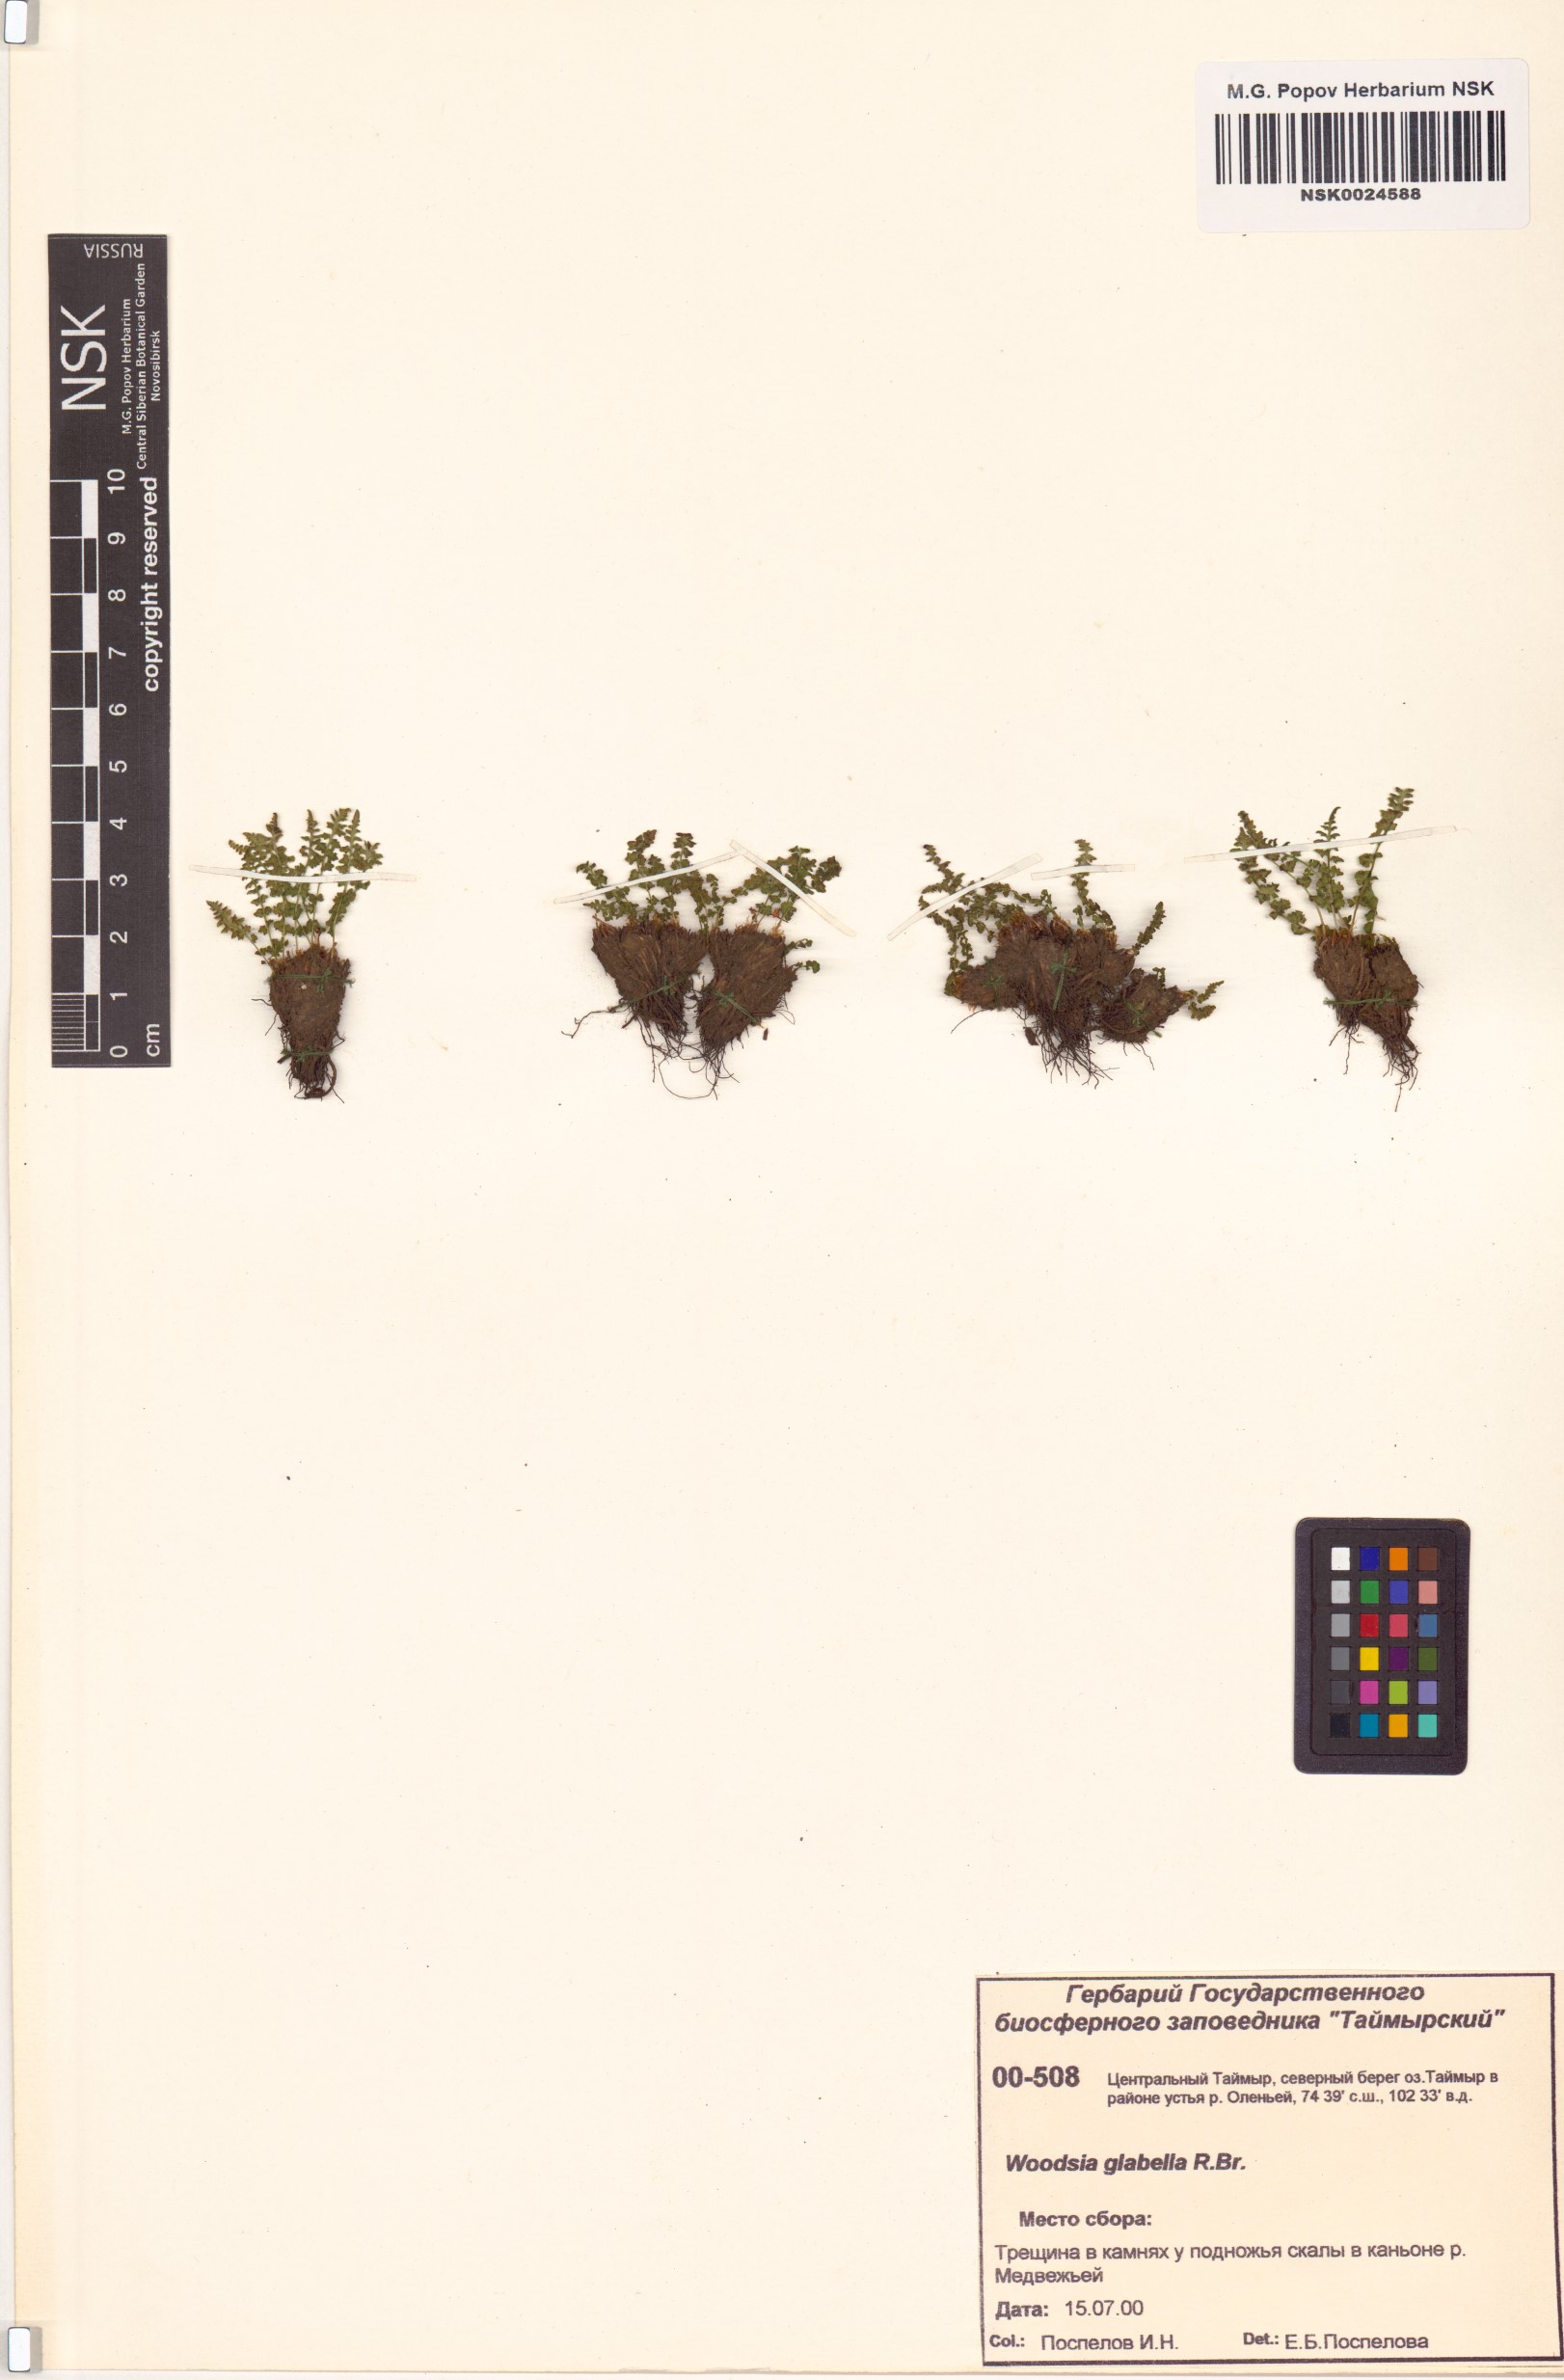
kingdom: Plantae
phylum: Tracheophyta
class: Polypodiopsida
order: Polypodiales
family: Woodsiaceae
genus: Woodsia
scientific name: Woodsia glabella
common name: Smooth woodsia
